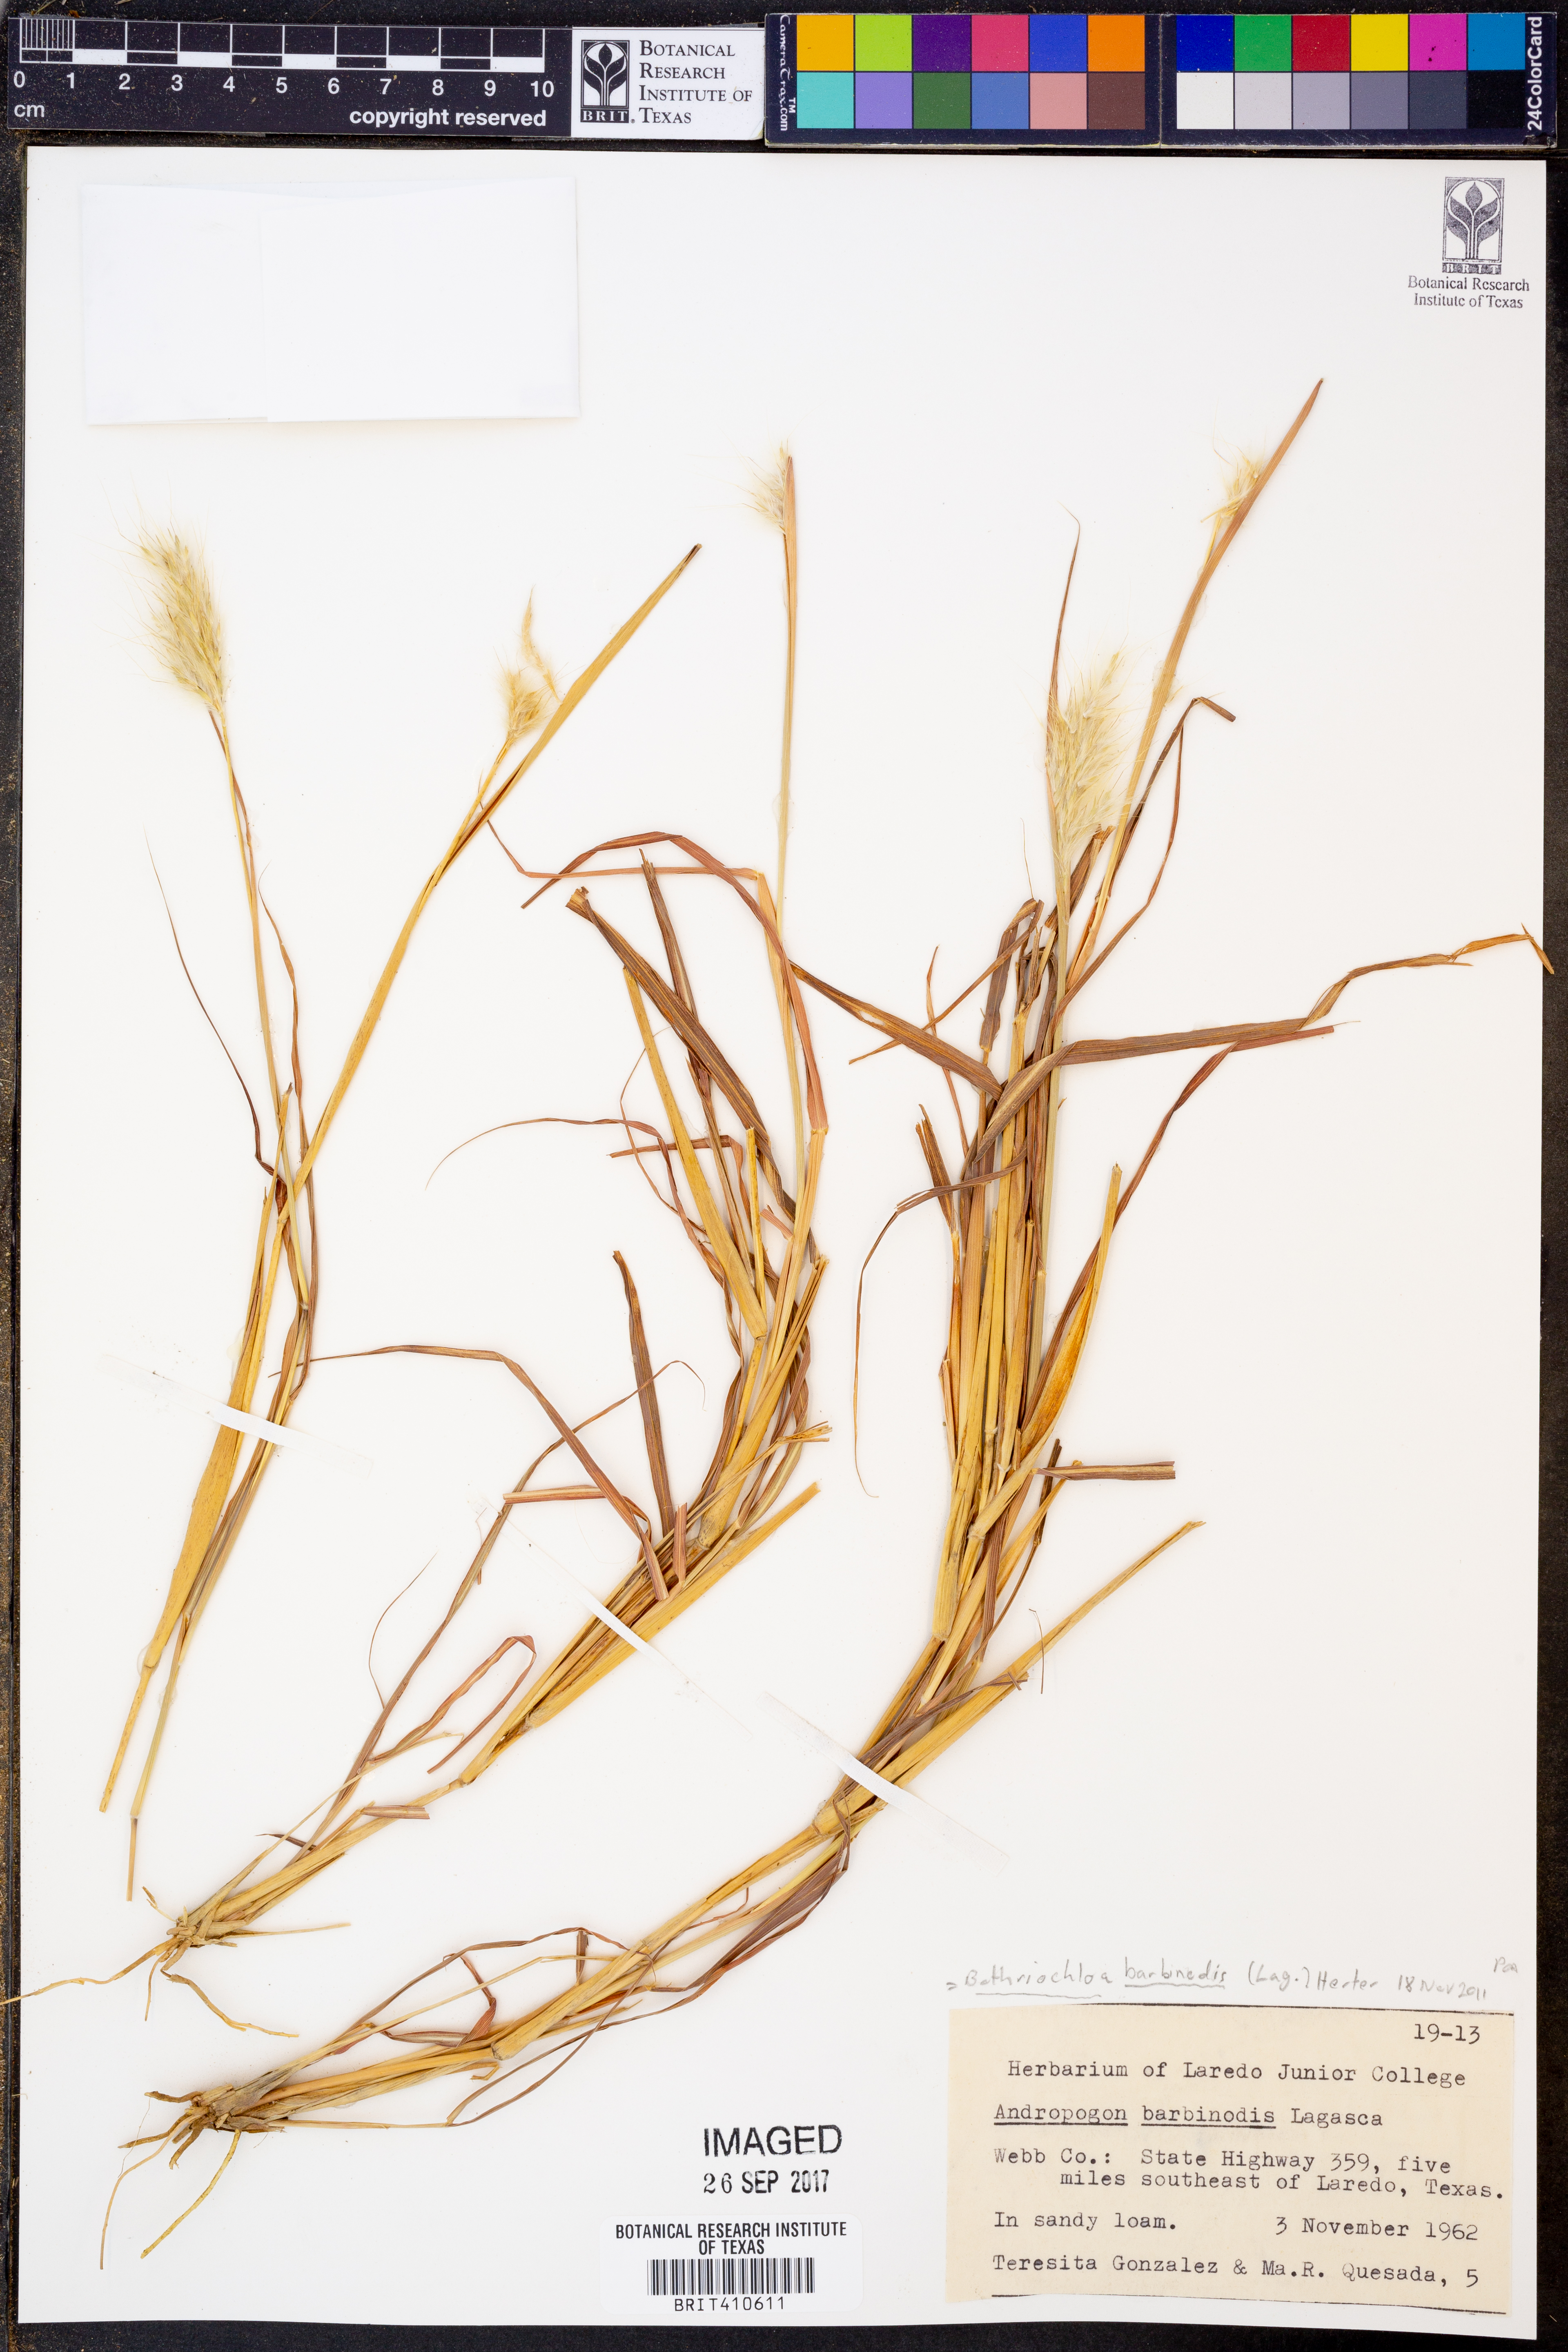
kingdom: Plantae
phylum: Tracheophyta
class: Liliopsida
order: Poales
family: Poaceae
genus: Bothriochloa
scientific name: Bothriochloa barbinodis
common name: Cane bluestem
